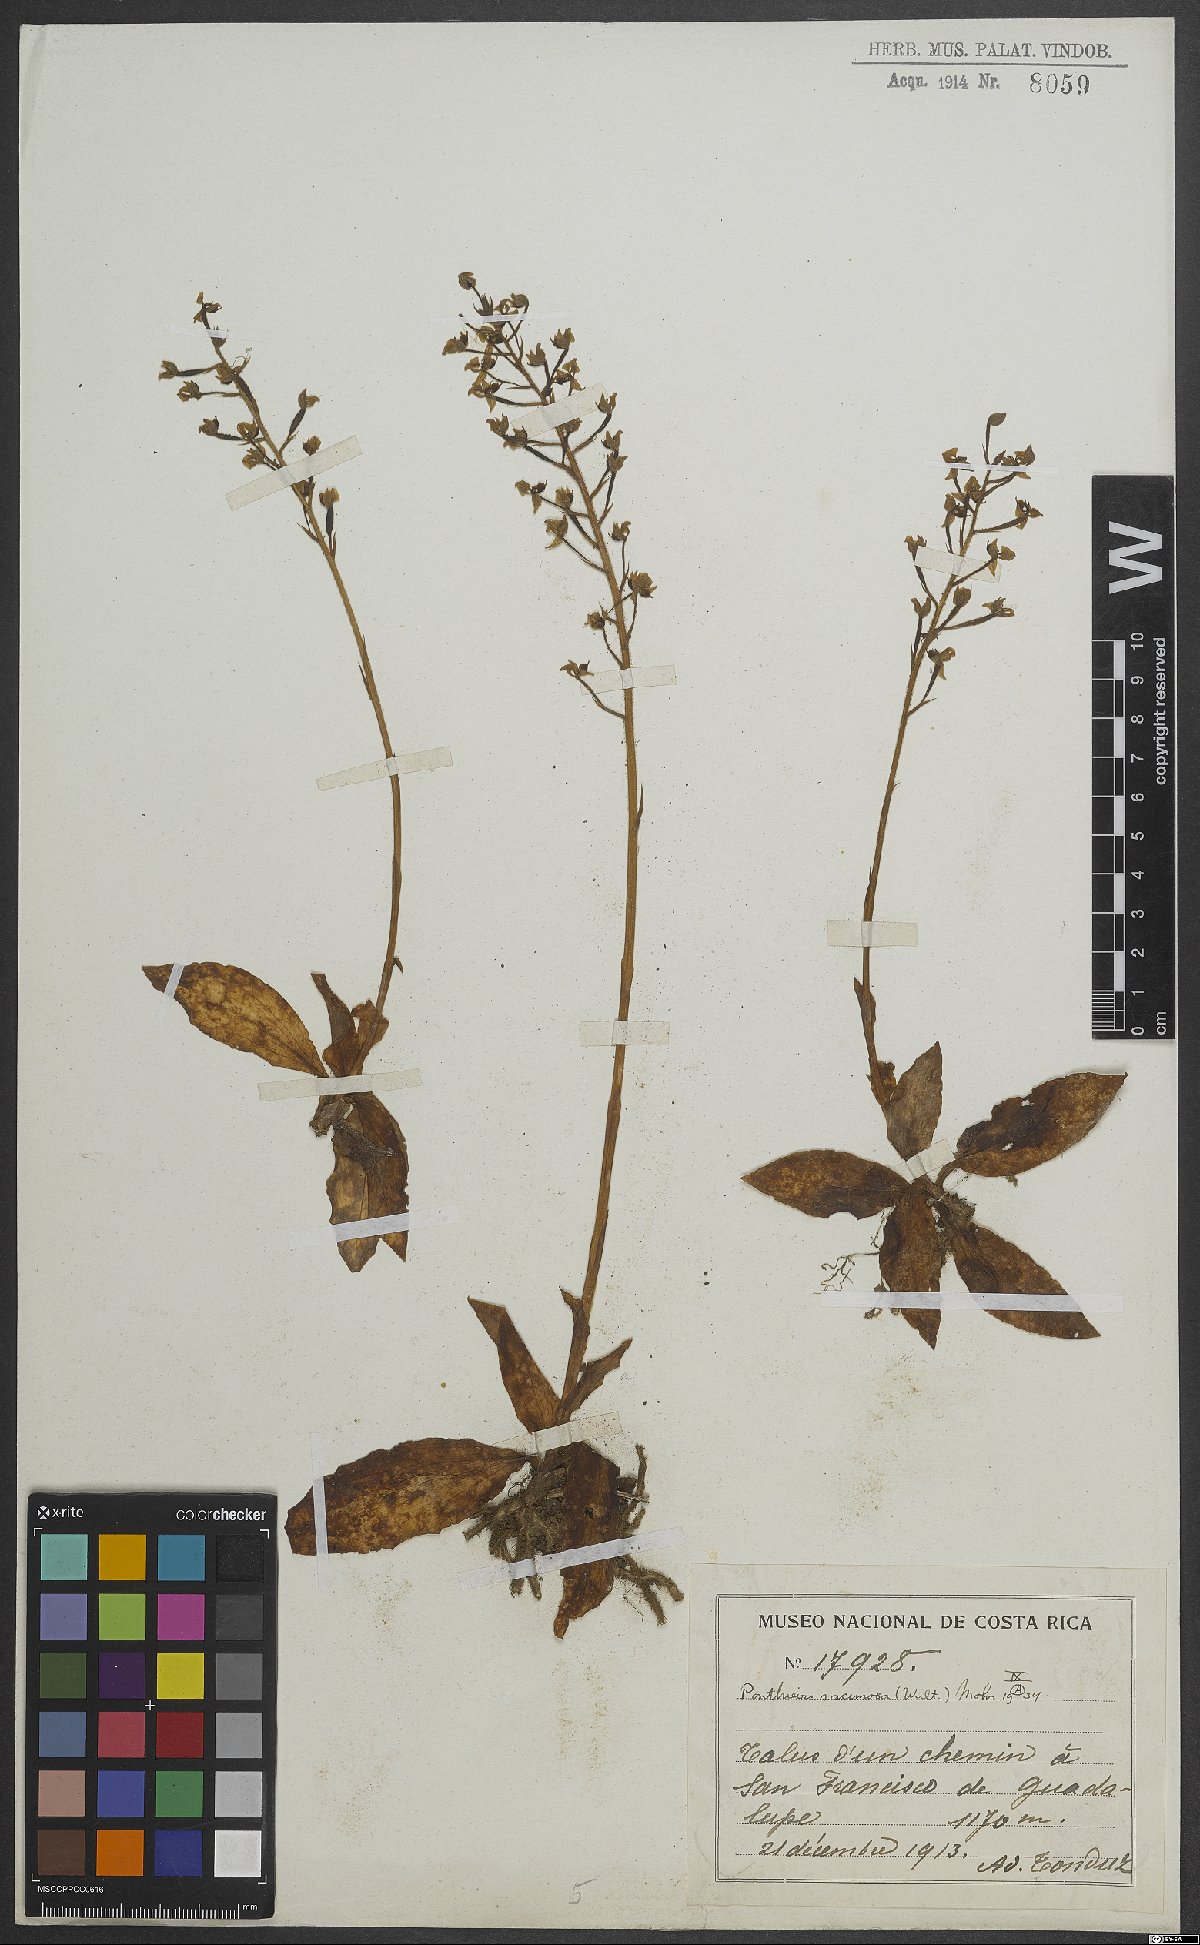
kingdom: Plantae
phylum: Tracheophyta
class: Liliopsida
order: Asparagales
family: Orchidaceae
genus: Ponthieva
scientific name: Ponthieva glandulosa
